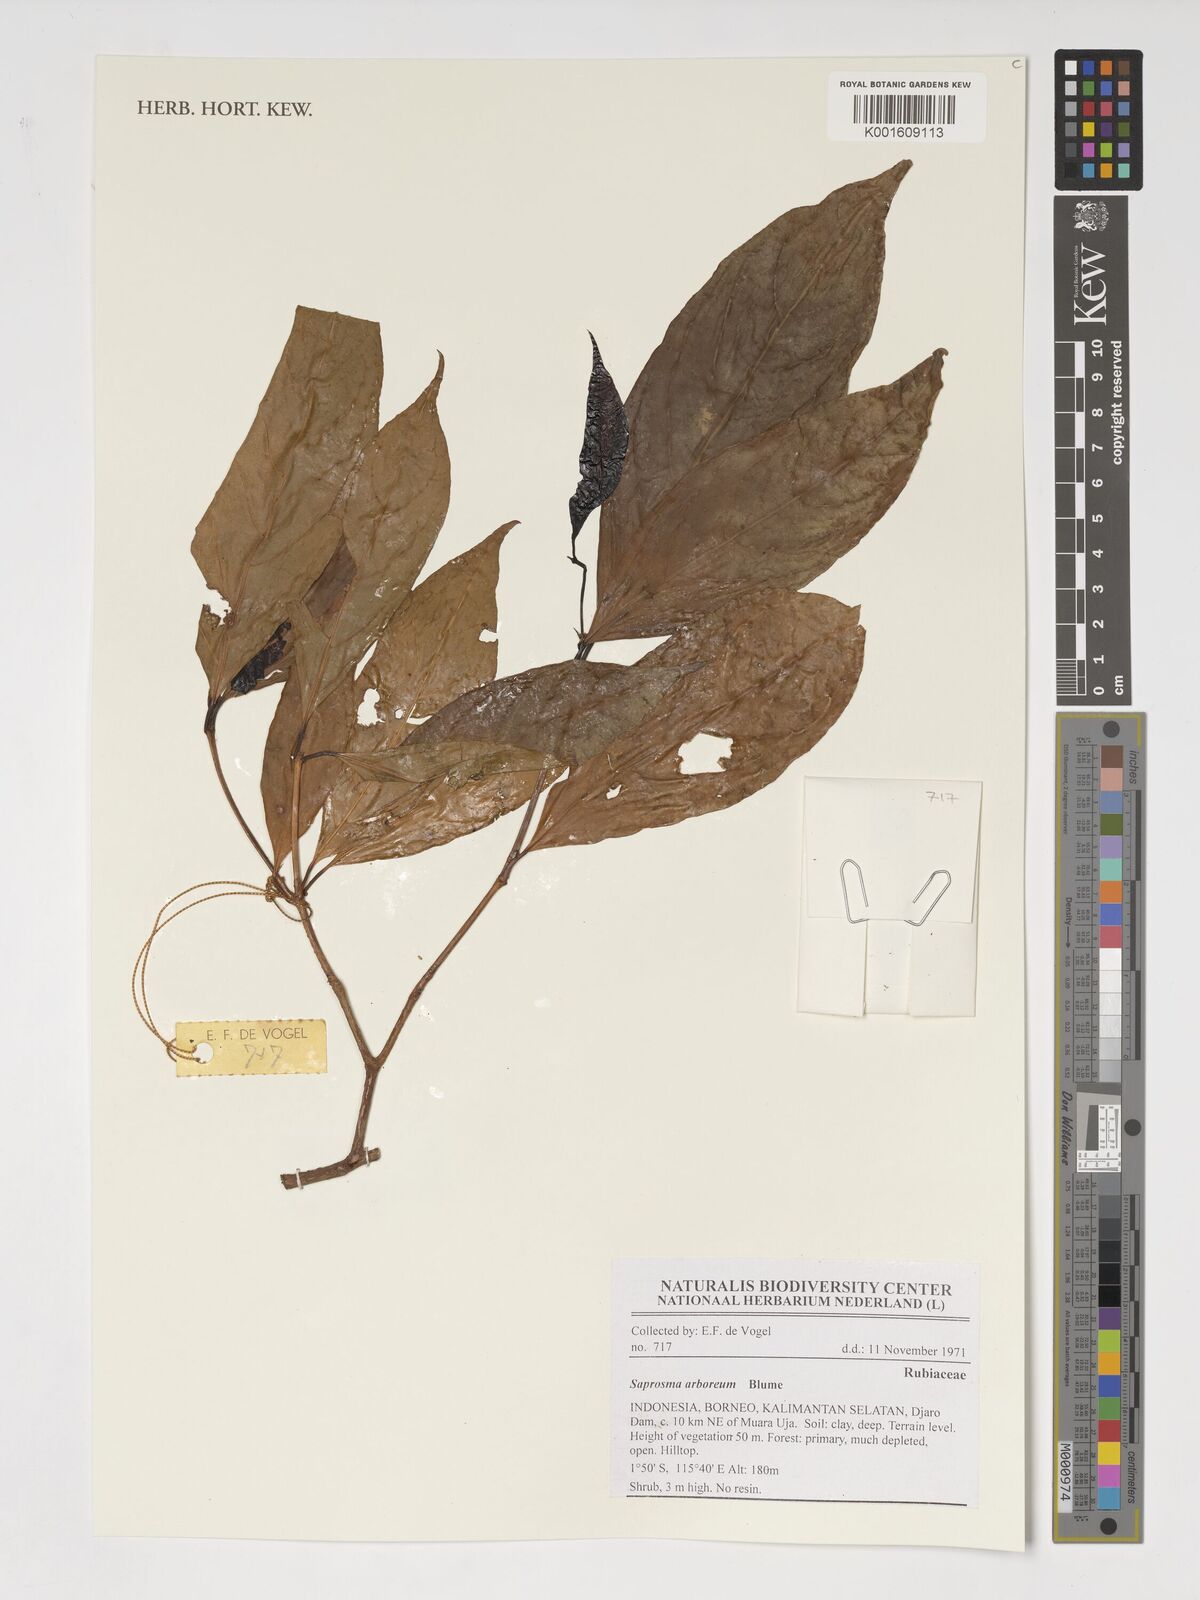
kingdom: Plantae
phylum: Tracheophyta
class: Magnoliopsida
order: Gentianales
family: Rubiaceae
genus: Saprosma
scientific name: Saprosma arborea
